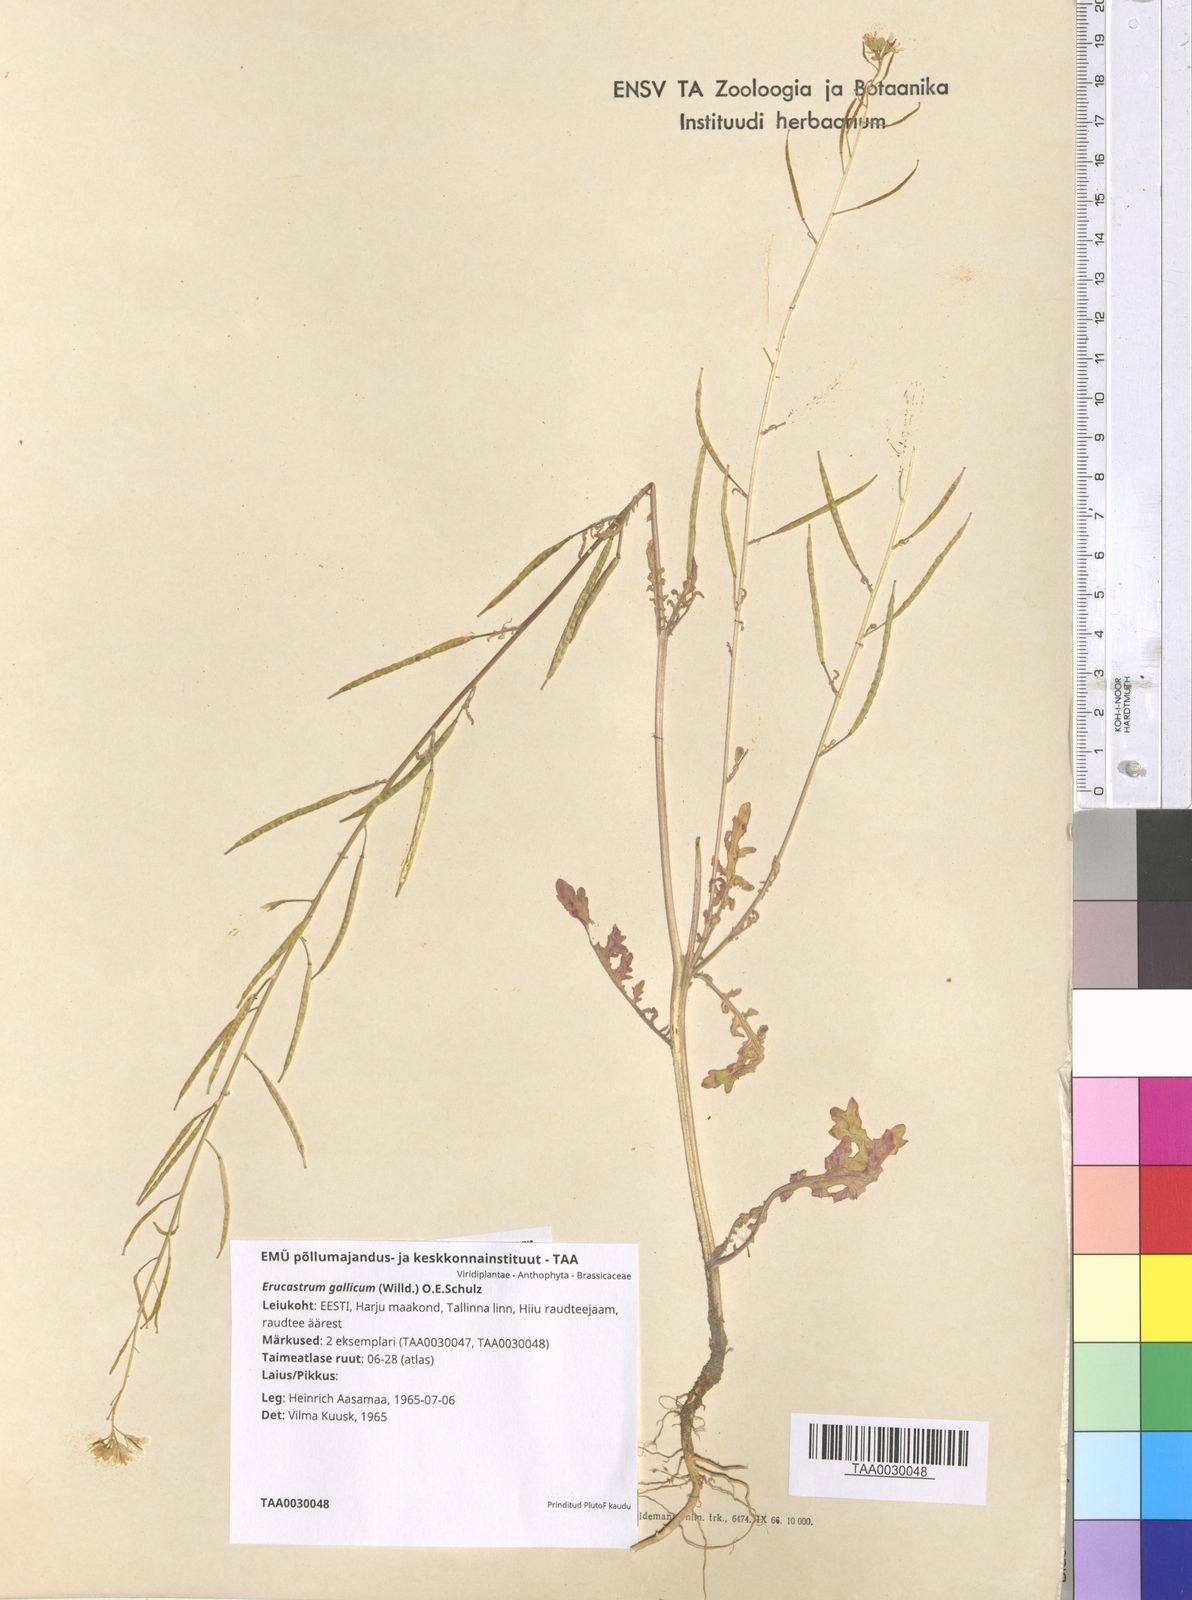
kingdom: Plantae
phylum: Tracheophyta
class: Magnoliopsida
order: Brassicales
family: Brassicaceae
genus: Erucastrum
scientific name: Erucastrum gallicum
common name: Hairy rocket
